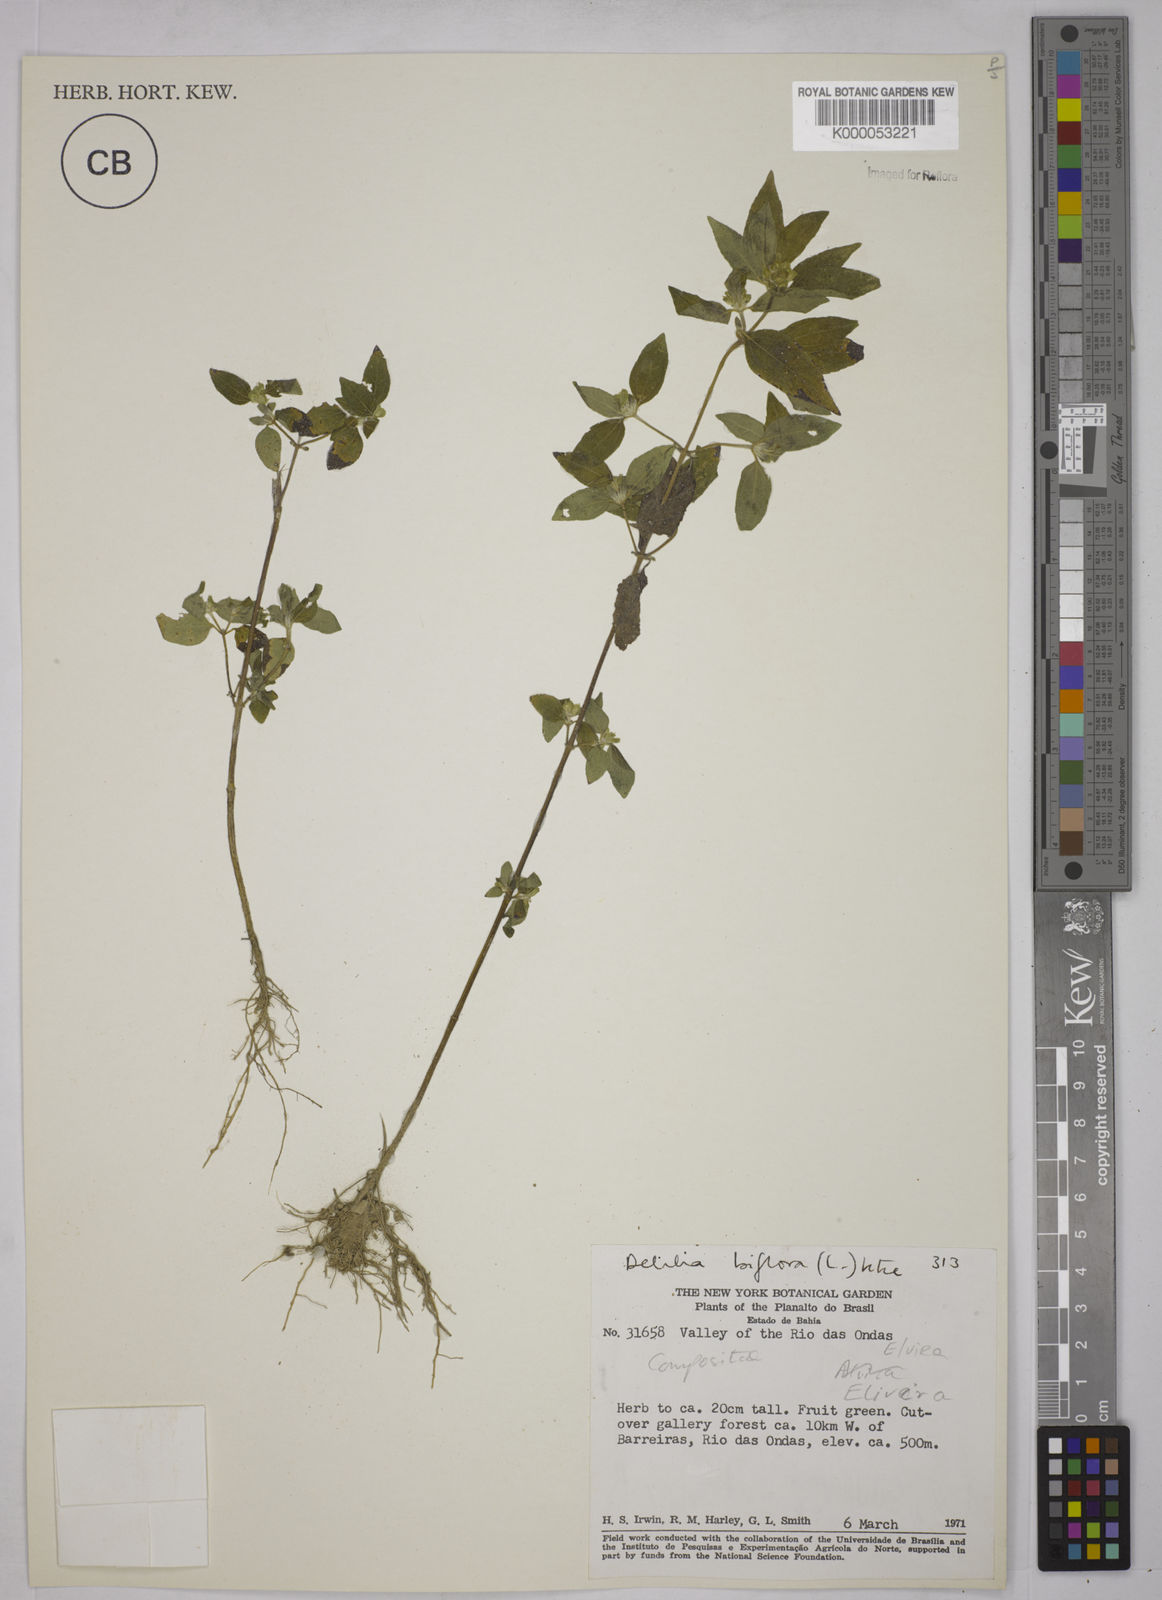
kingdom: Plantae
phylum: Tracheophyta
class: Magnoliopsida
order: Asterales
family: Asteraceae
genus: Delilia
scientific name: Delilia biflora
